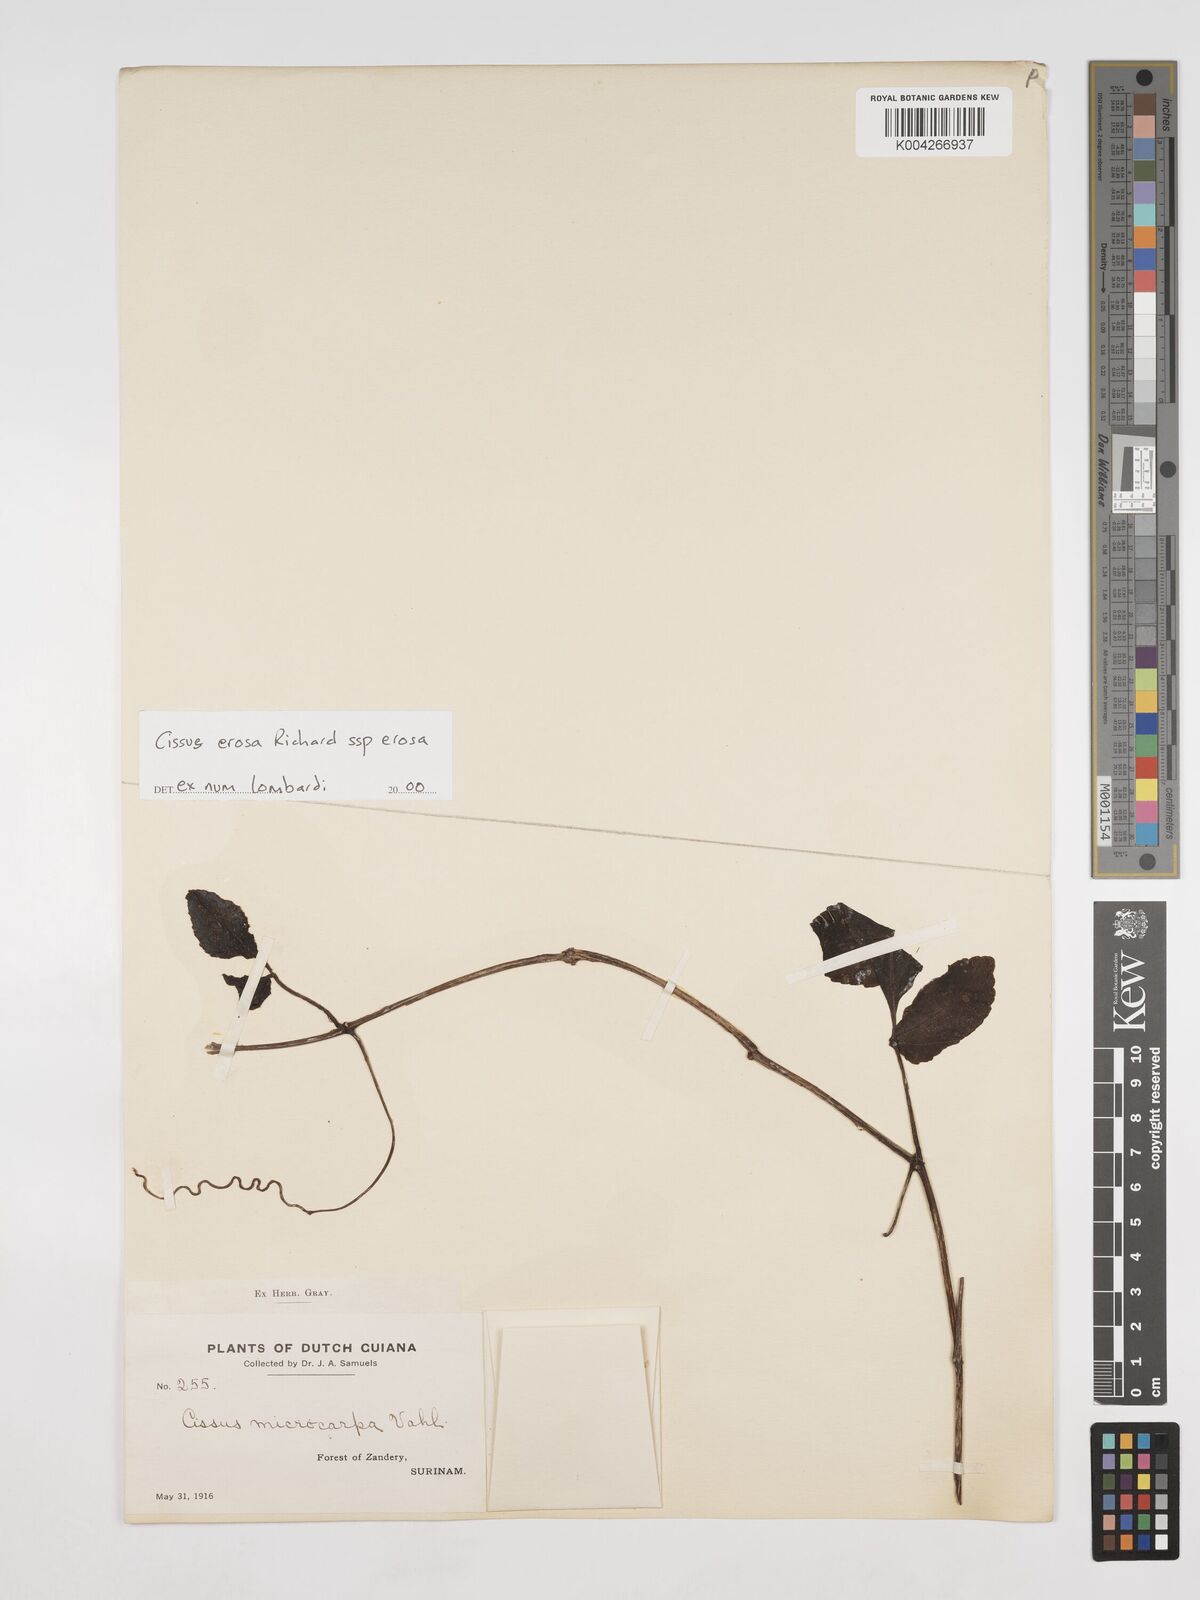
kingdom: Plantae
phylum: Tracheophyta
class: Magnoliopsida
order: Vitales
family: Vitaceae
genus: Cissus
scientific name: Cissus erosa
